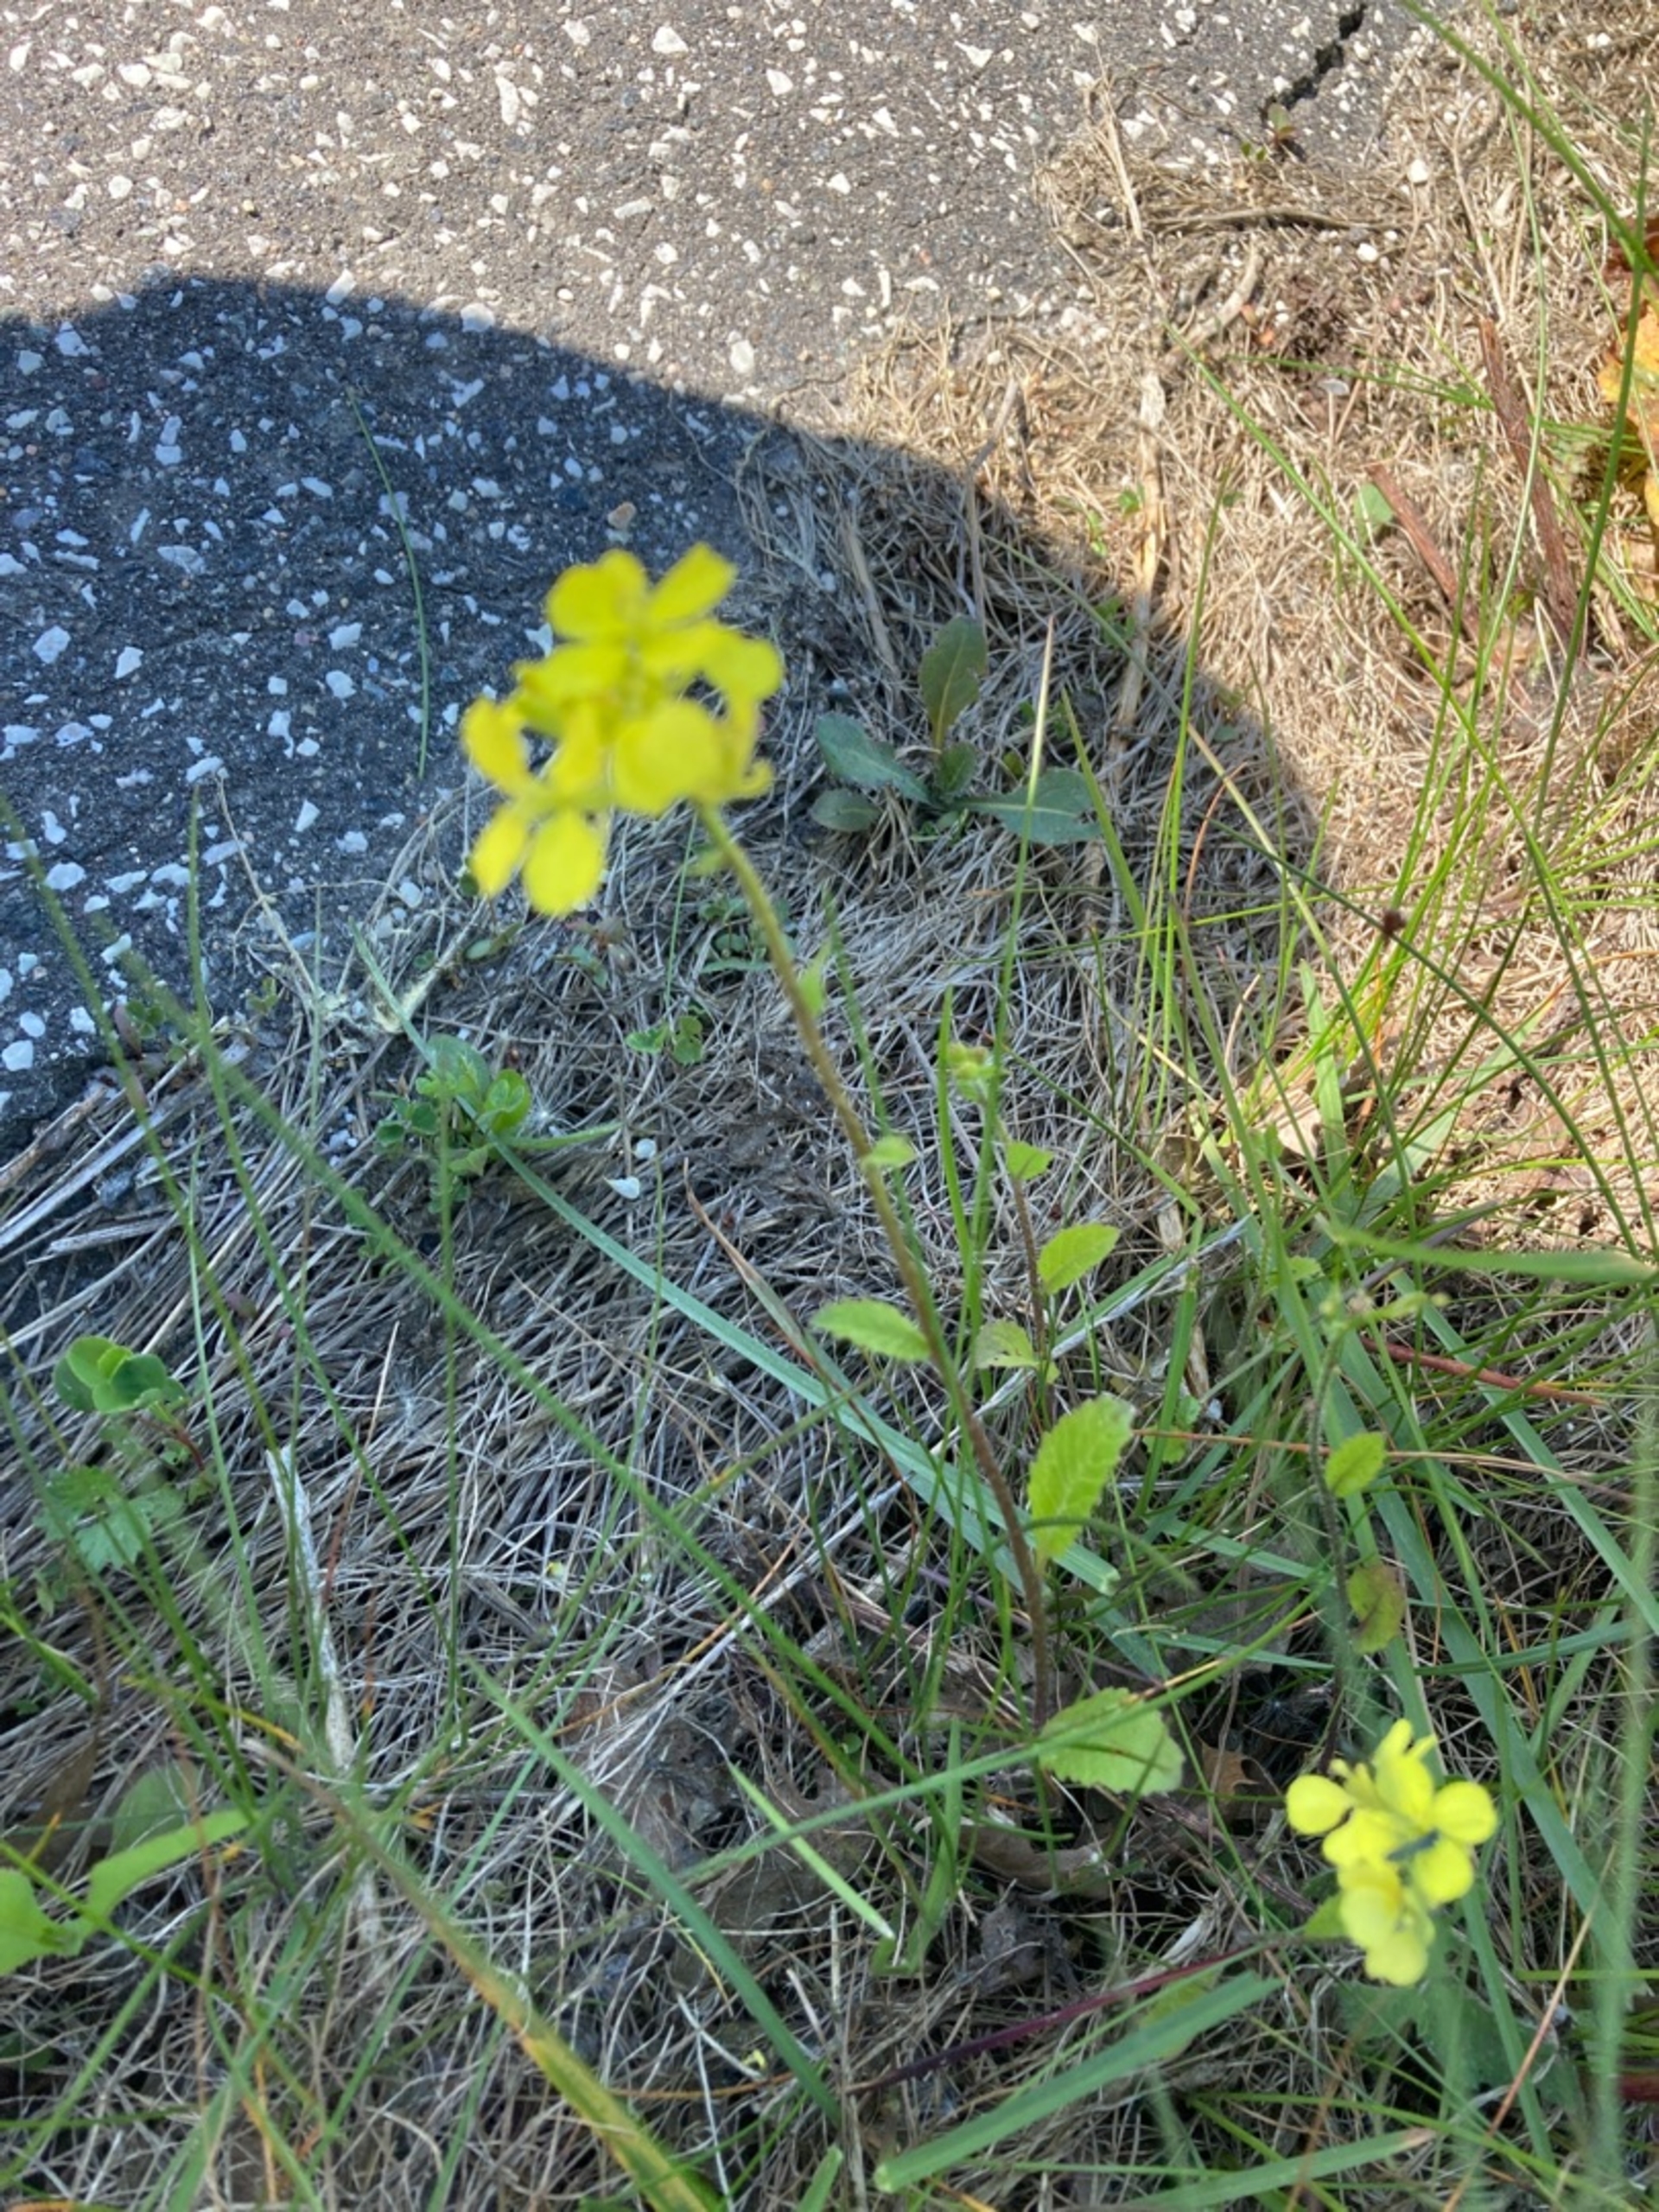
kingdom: Plantae
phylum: Tracheophyta
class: Magnoliopsida
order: Brassicales
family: Brassicaceae
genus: Sinapis
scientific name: Sinapis arvensis
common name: Ager-sennep
